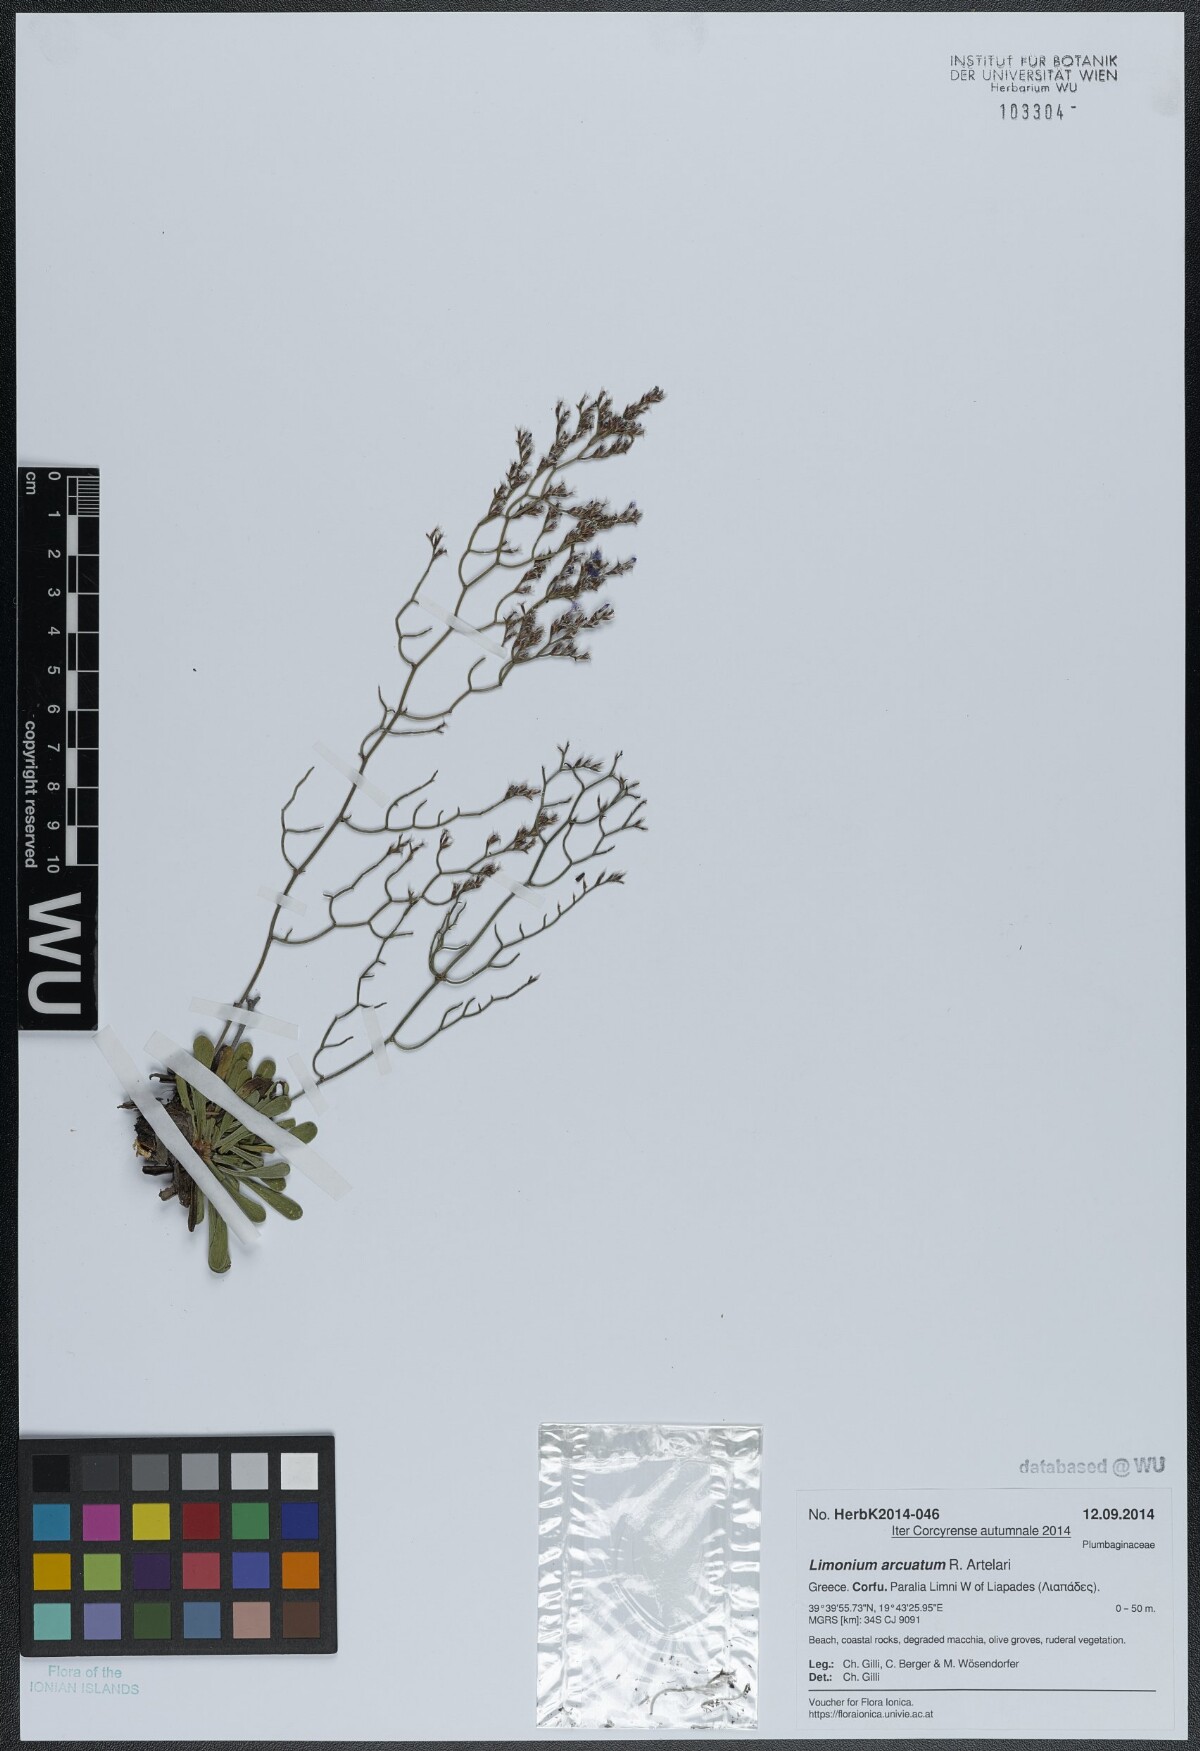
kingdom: Plantae
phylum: Tracheophyta
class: Magnoliopsida
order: Caryophyllales
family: Plumbaginaceae
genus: Limonium
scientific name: Limonium arcuatum
